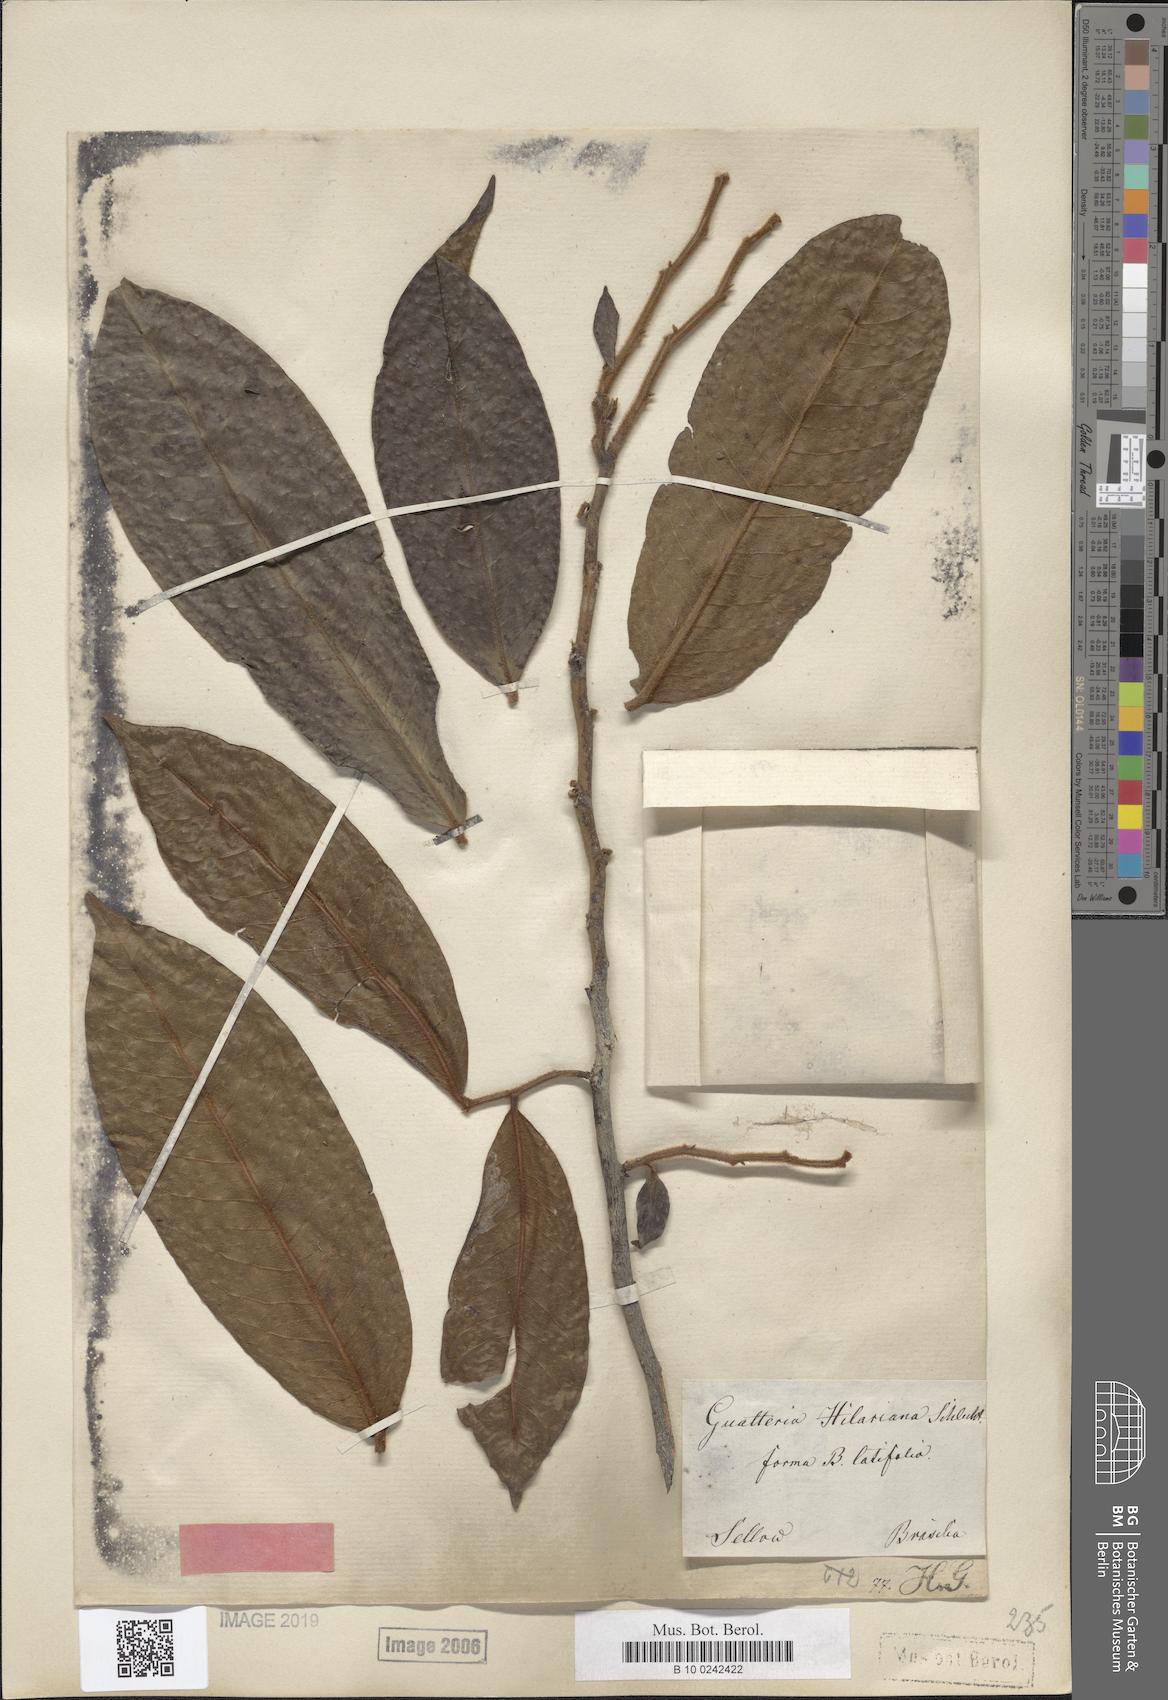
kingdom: Plantae
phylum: Tracheophyta
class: Magnoliopsida
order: Magnoliales
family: Annonaceae
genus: Guatteria
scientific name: Guatteria australis
